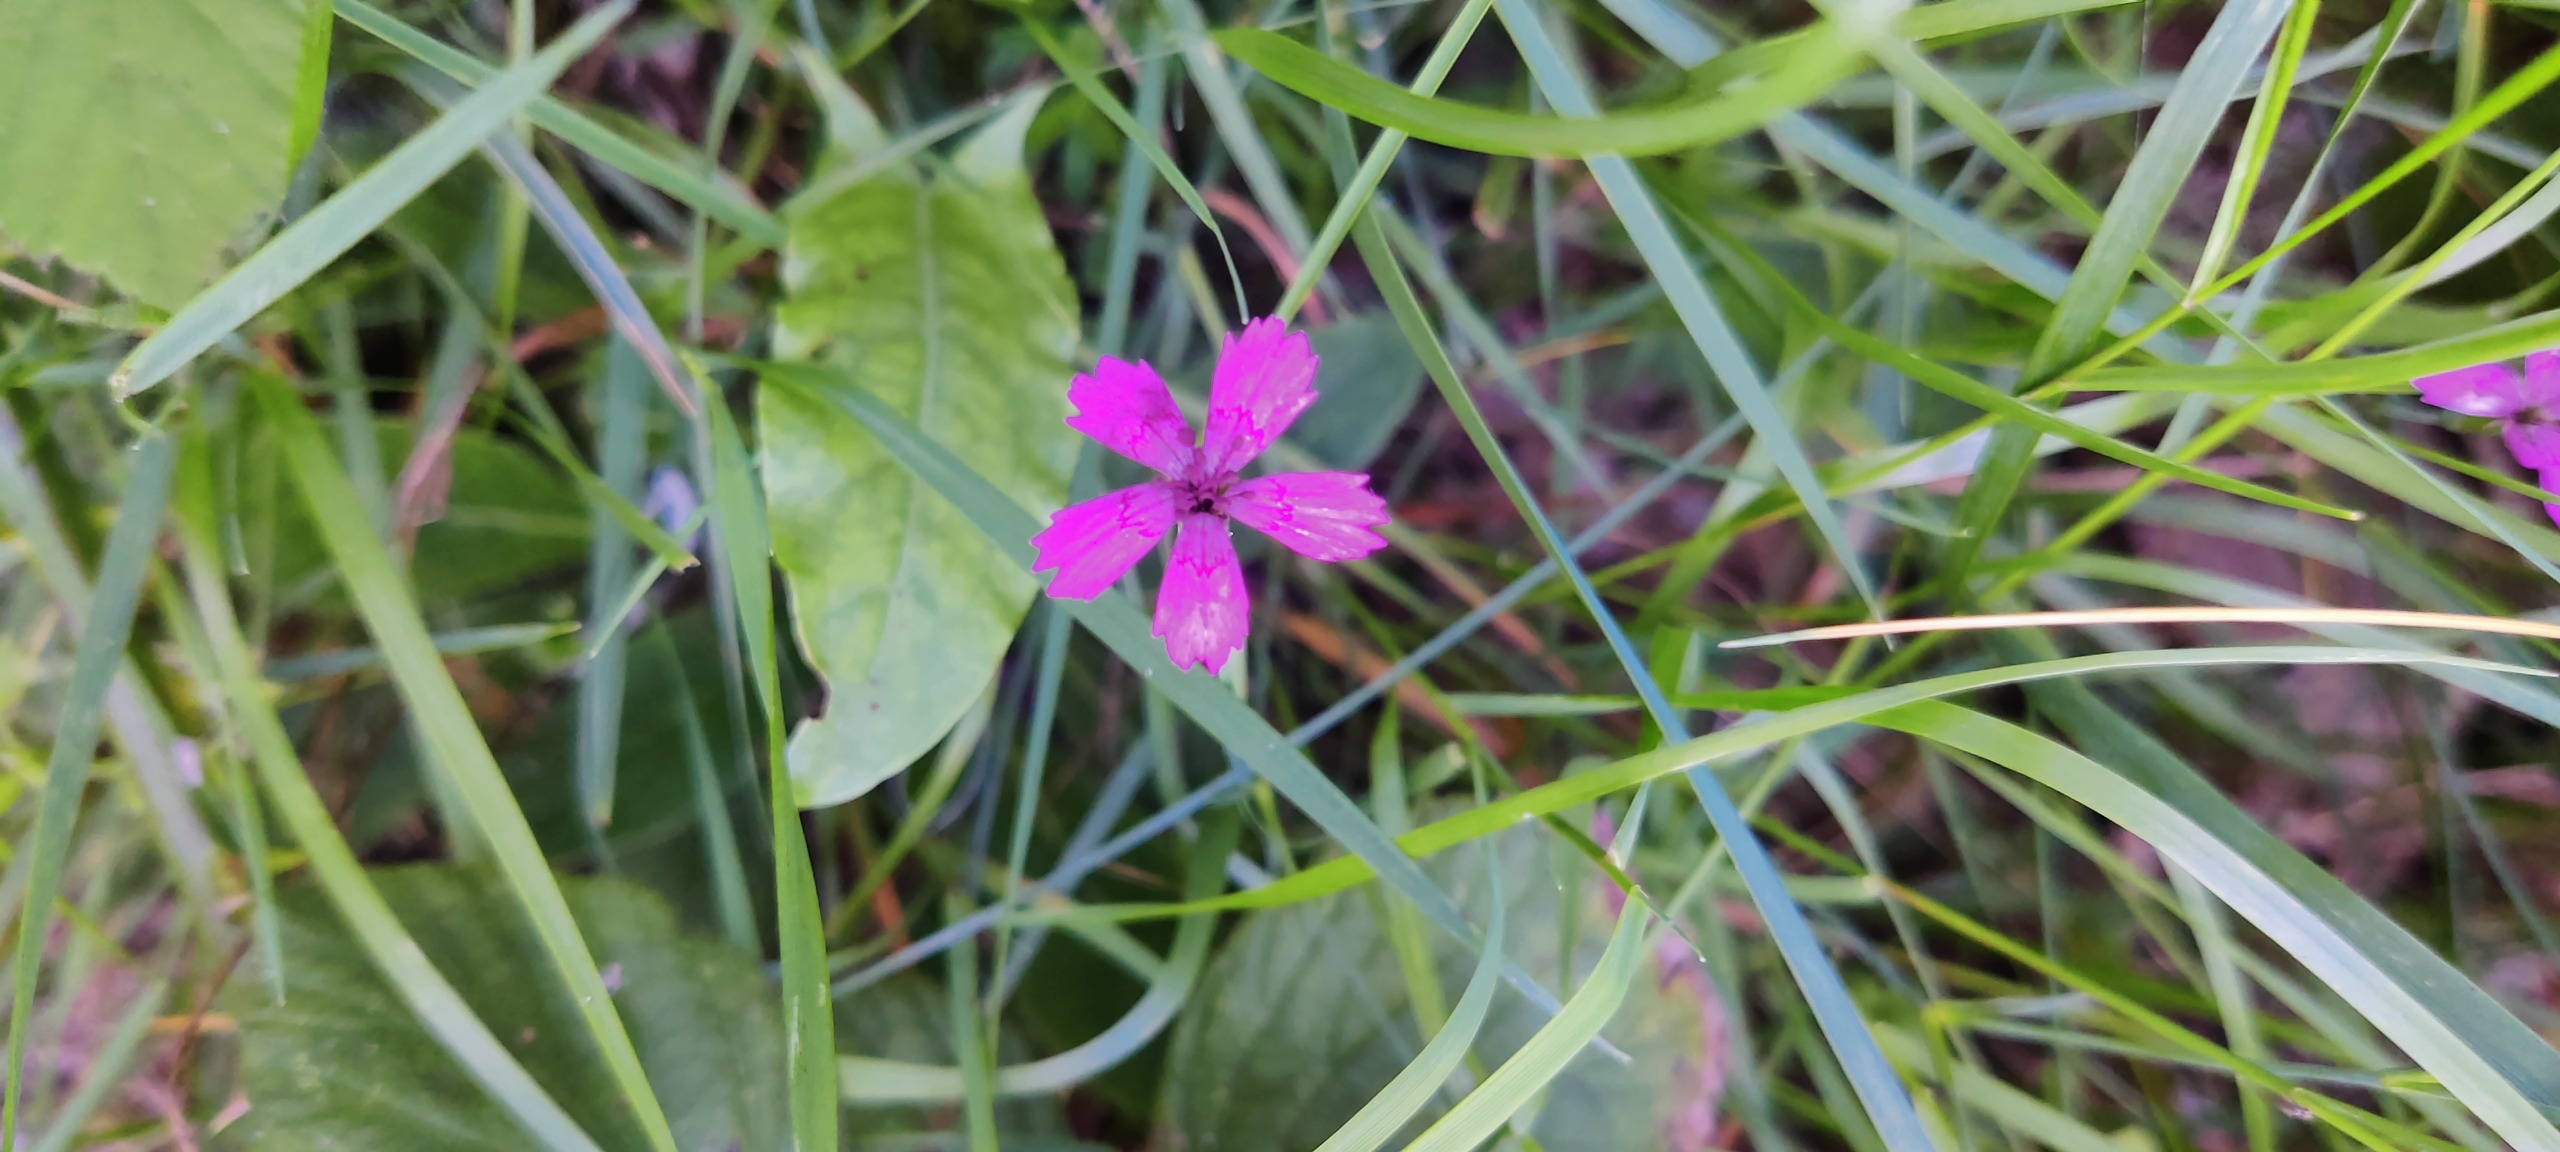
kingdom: Plantae
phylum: Tracheophyta
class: Magnoliopsida
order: Caryophyllales
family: Caryophyllaceae
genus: Dianthus
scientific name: Dianthus deltoides
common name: Bakke-nellike
